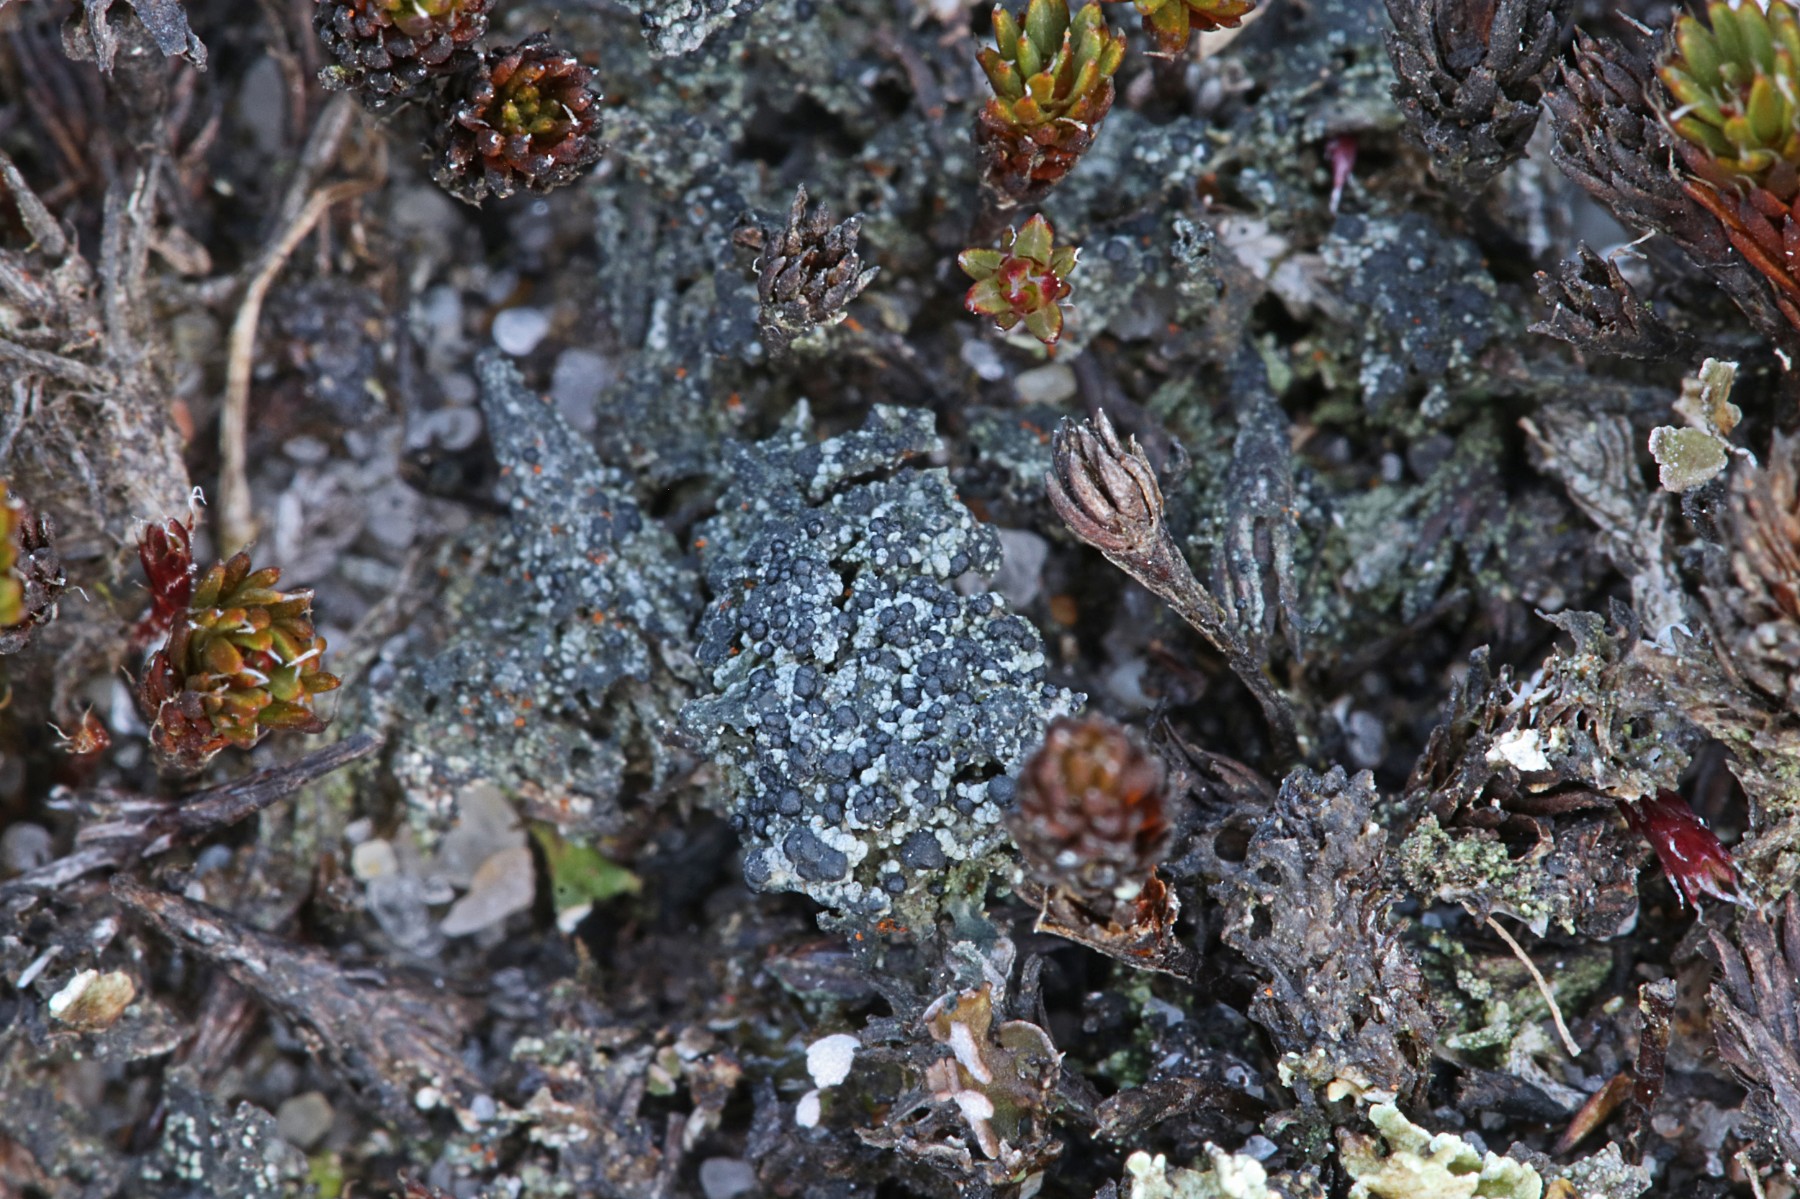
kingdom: Fungi
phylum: Ascomycota
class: Lecanoromycetes
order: Lecanorales
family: Byssolomataceae
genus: Micarea
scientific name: Micarea lignaria
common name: tørve-knaplav
